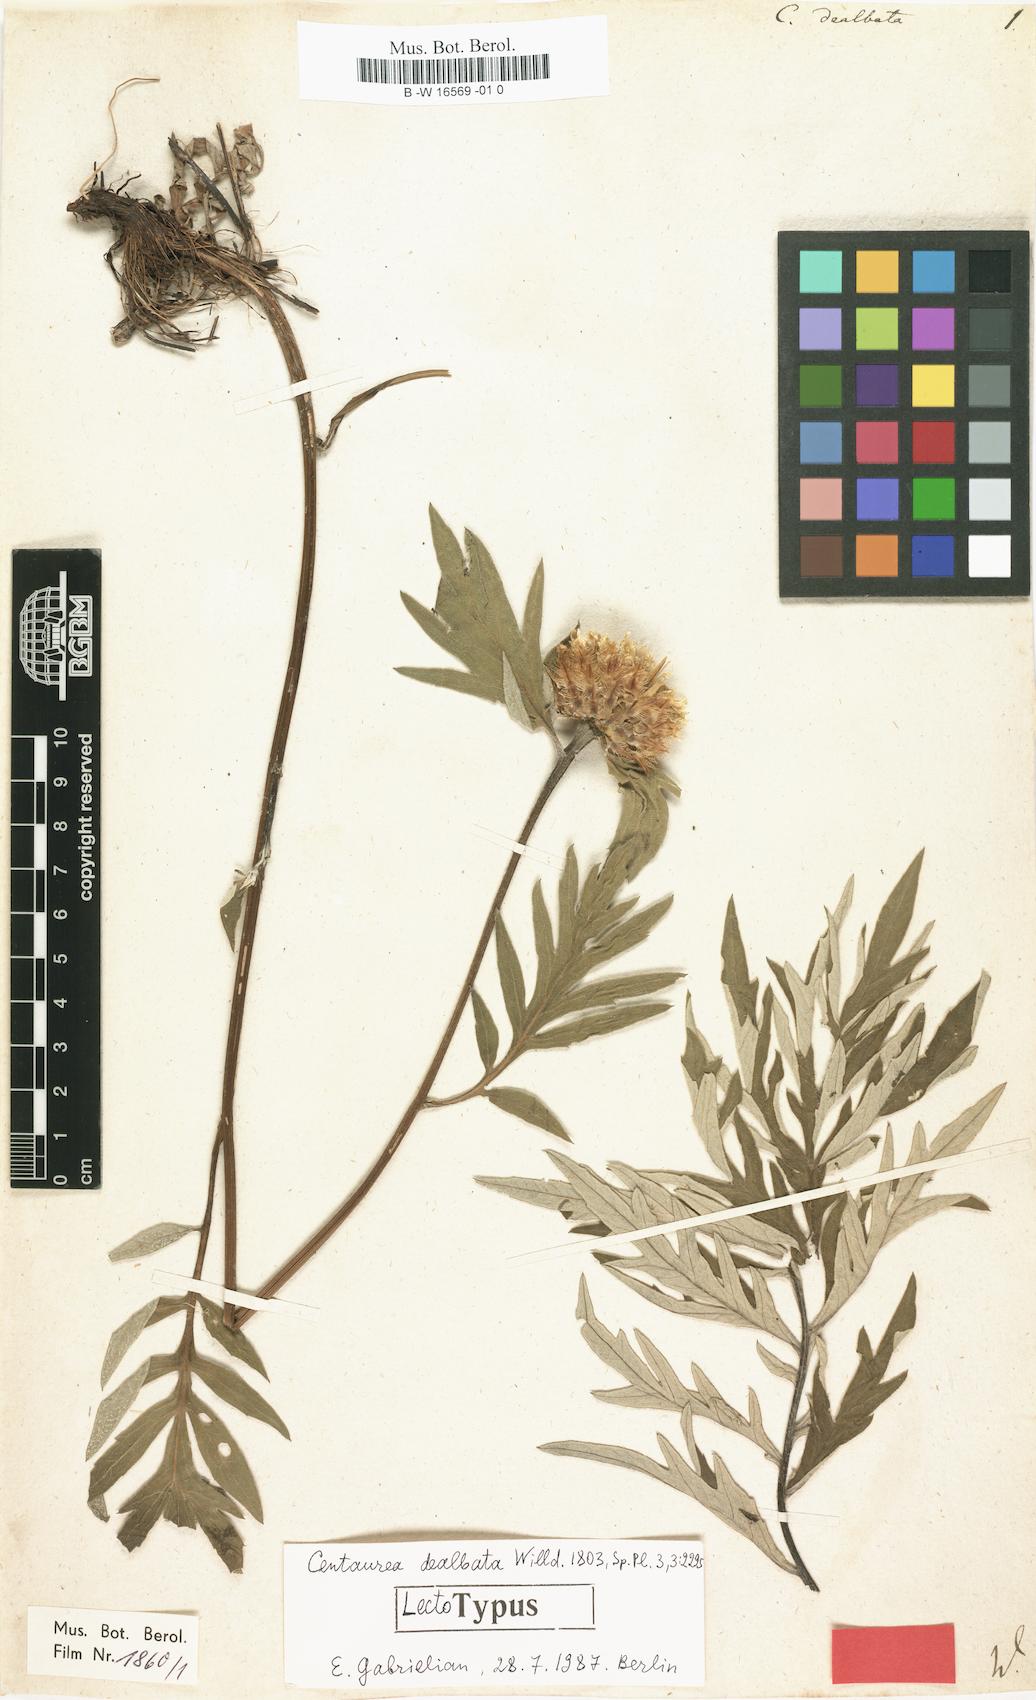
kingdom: Plantae
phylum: Tracheophyta
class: Magnoliopsida
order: Asterales
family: Asteraceae
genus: Psephellus
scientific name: Psephellus dealbatus
